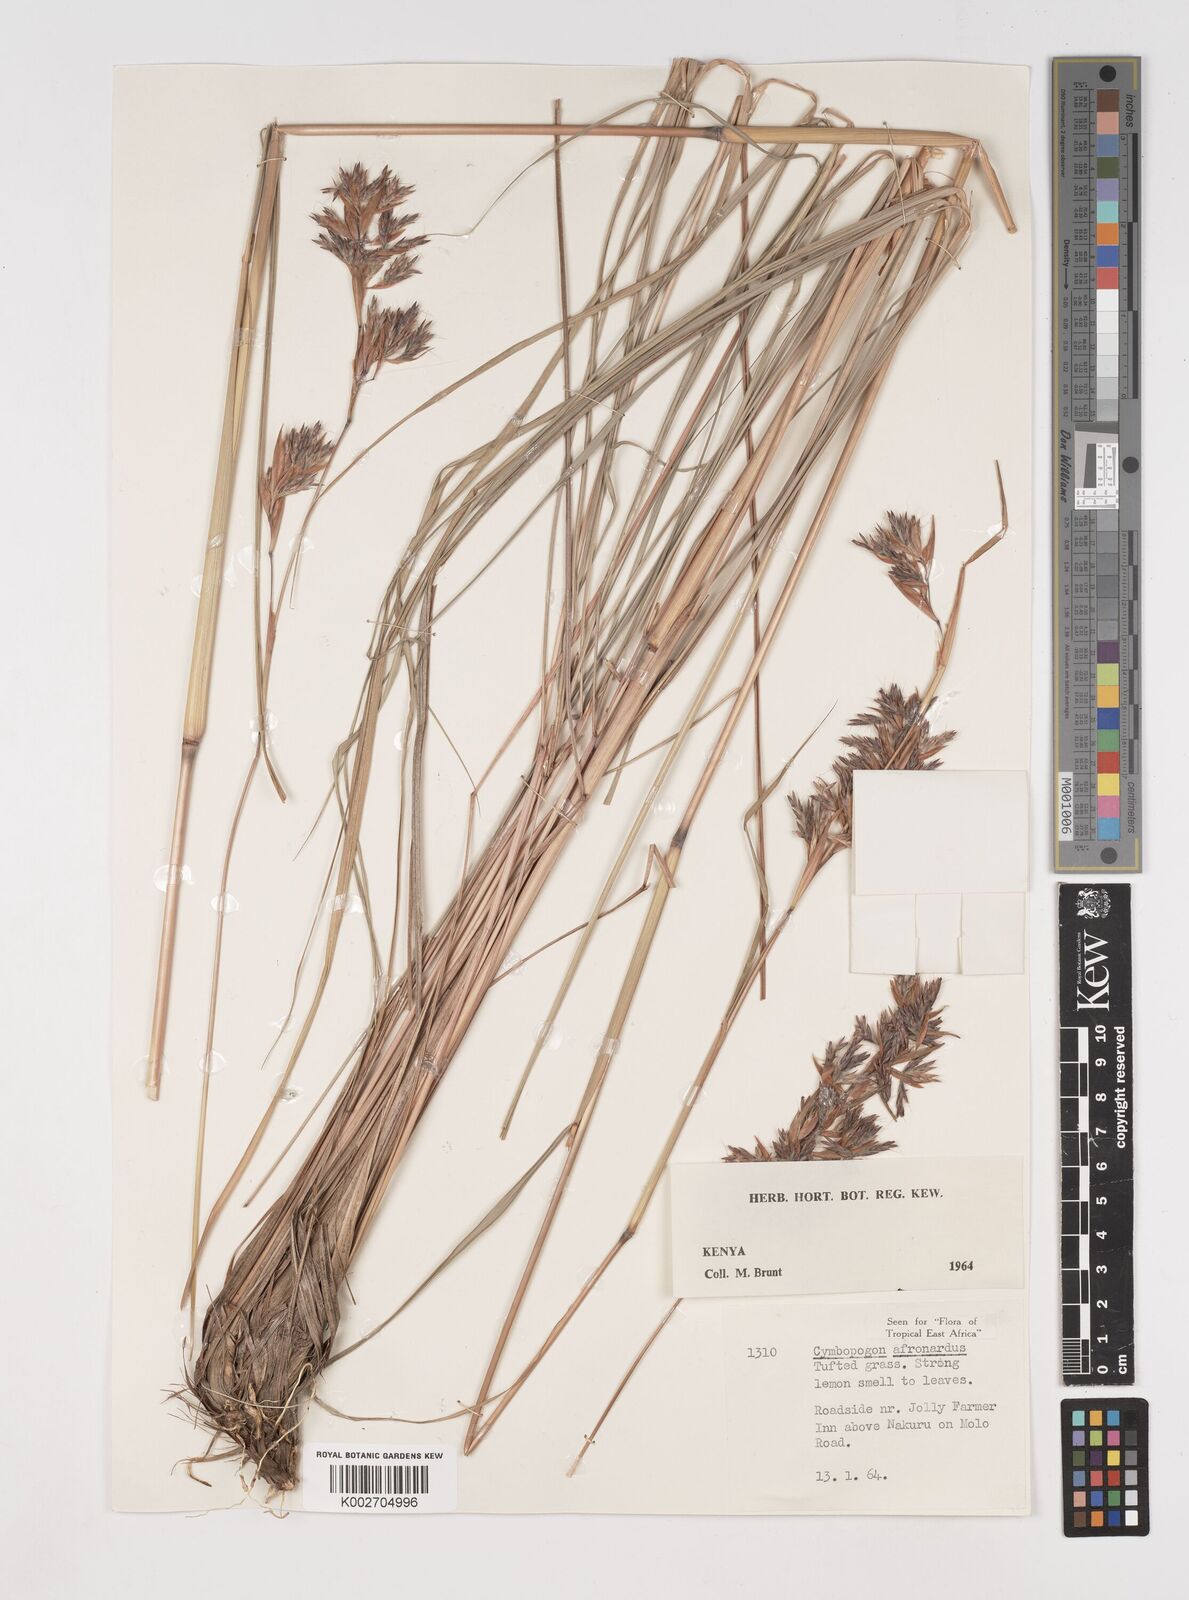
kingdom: Plantae
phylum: Tracheophyta
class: Liliopsida
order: Poales
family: Poaceae
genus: Cymbopogon
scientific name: Cymbopogon nardus
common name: Giant turpentine grass
